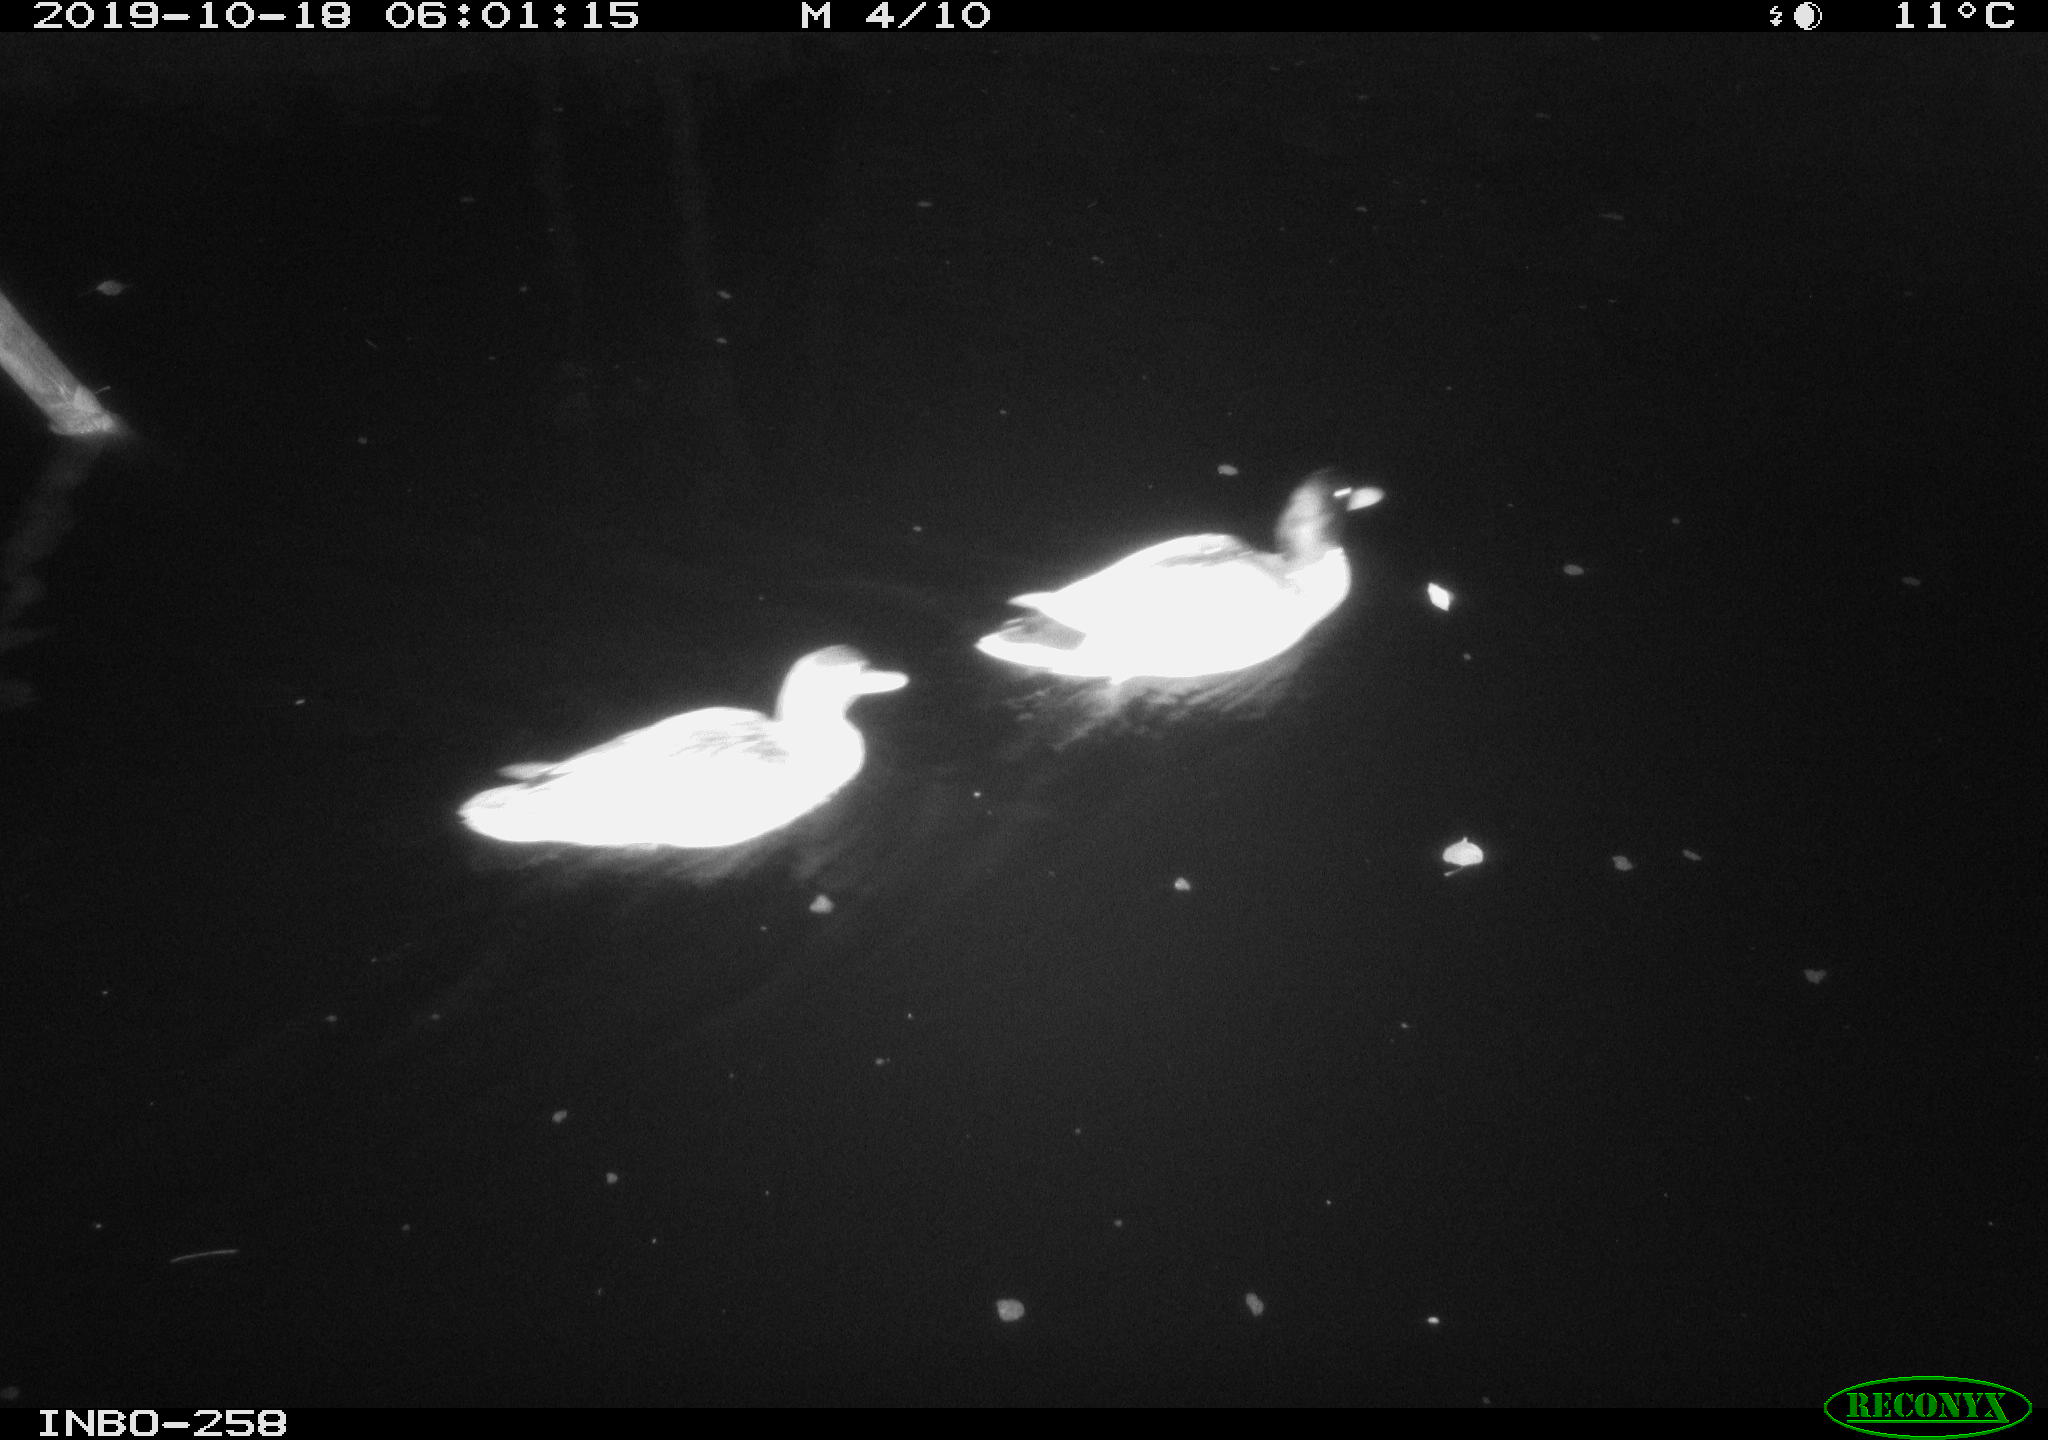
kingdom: Animalia
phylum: Chordata
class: Aves
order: Anseriformes
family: Anatidae
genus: Anas
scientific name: Anas platyrhynchos
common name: Mallard
